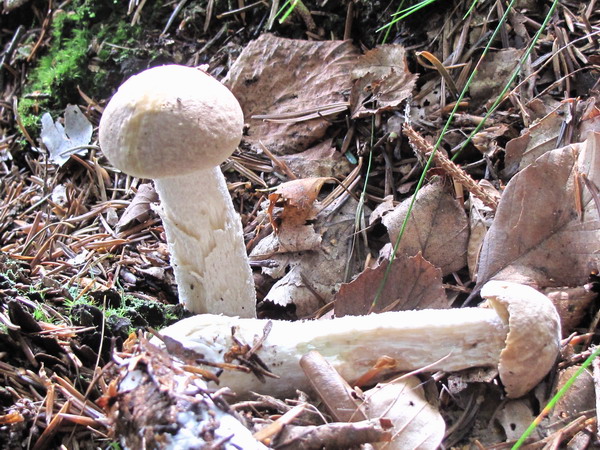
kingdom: Fungi
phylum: Basidiomycota
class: Agaricomycetes
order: Boletales
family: Boletaceae
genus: Leccinum
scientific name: Leccinum scabrum
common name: hvid skælrørhat
